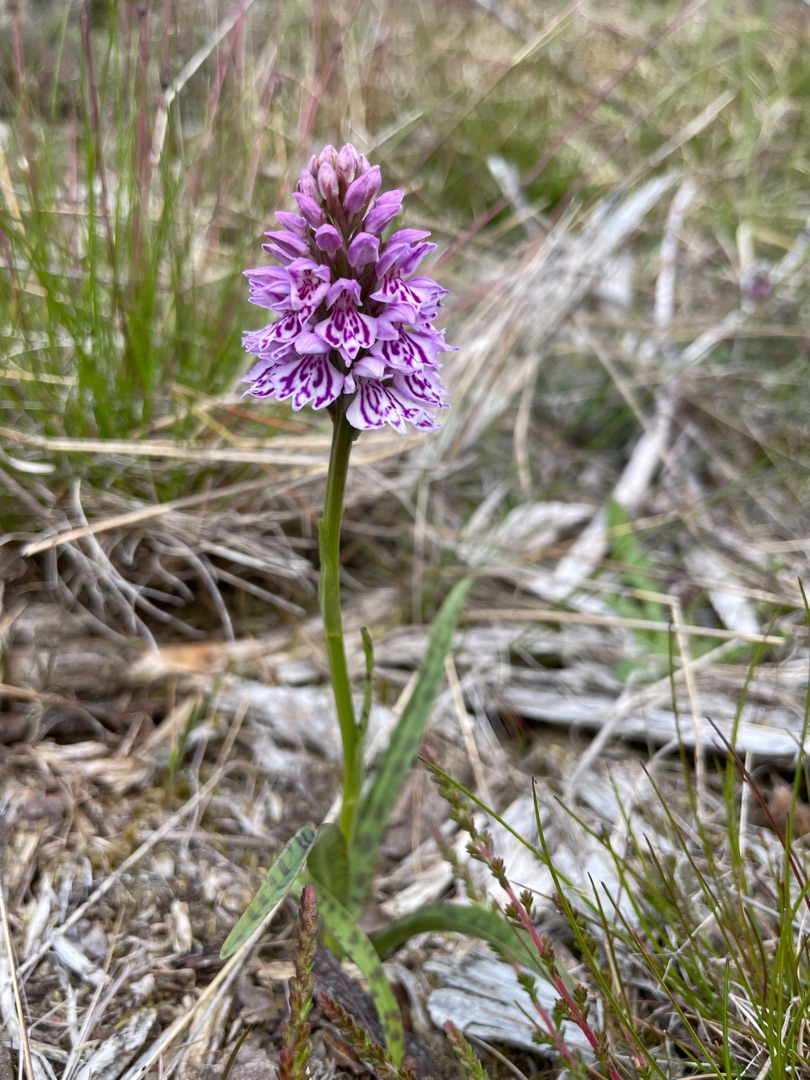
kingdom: Plantae
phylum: Tracheophyta
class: Liliopsida
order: Asparagales
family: Orchidaceae
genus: Dactylorhiza
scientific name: Dactylorhiza maculata
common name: Plettet gøgeurt
